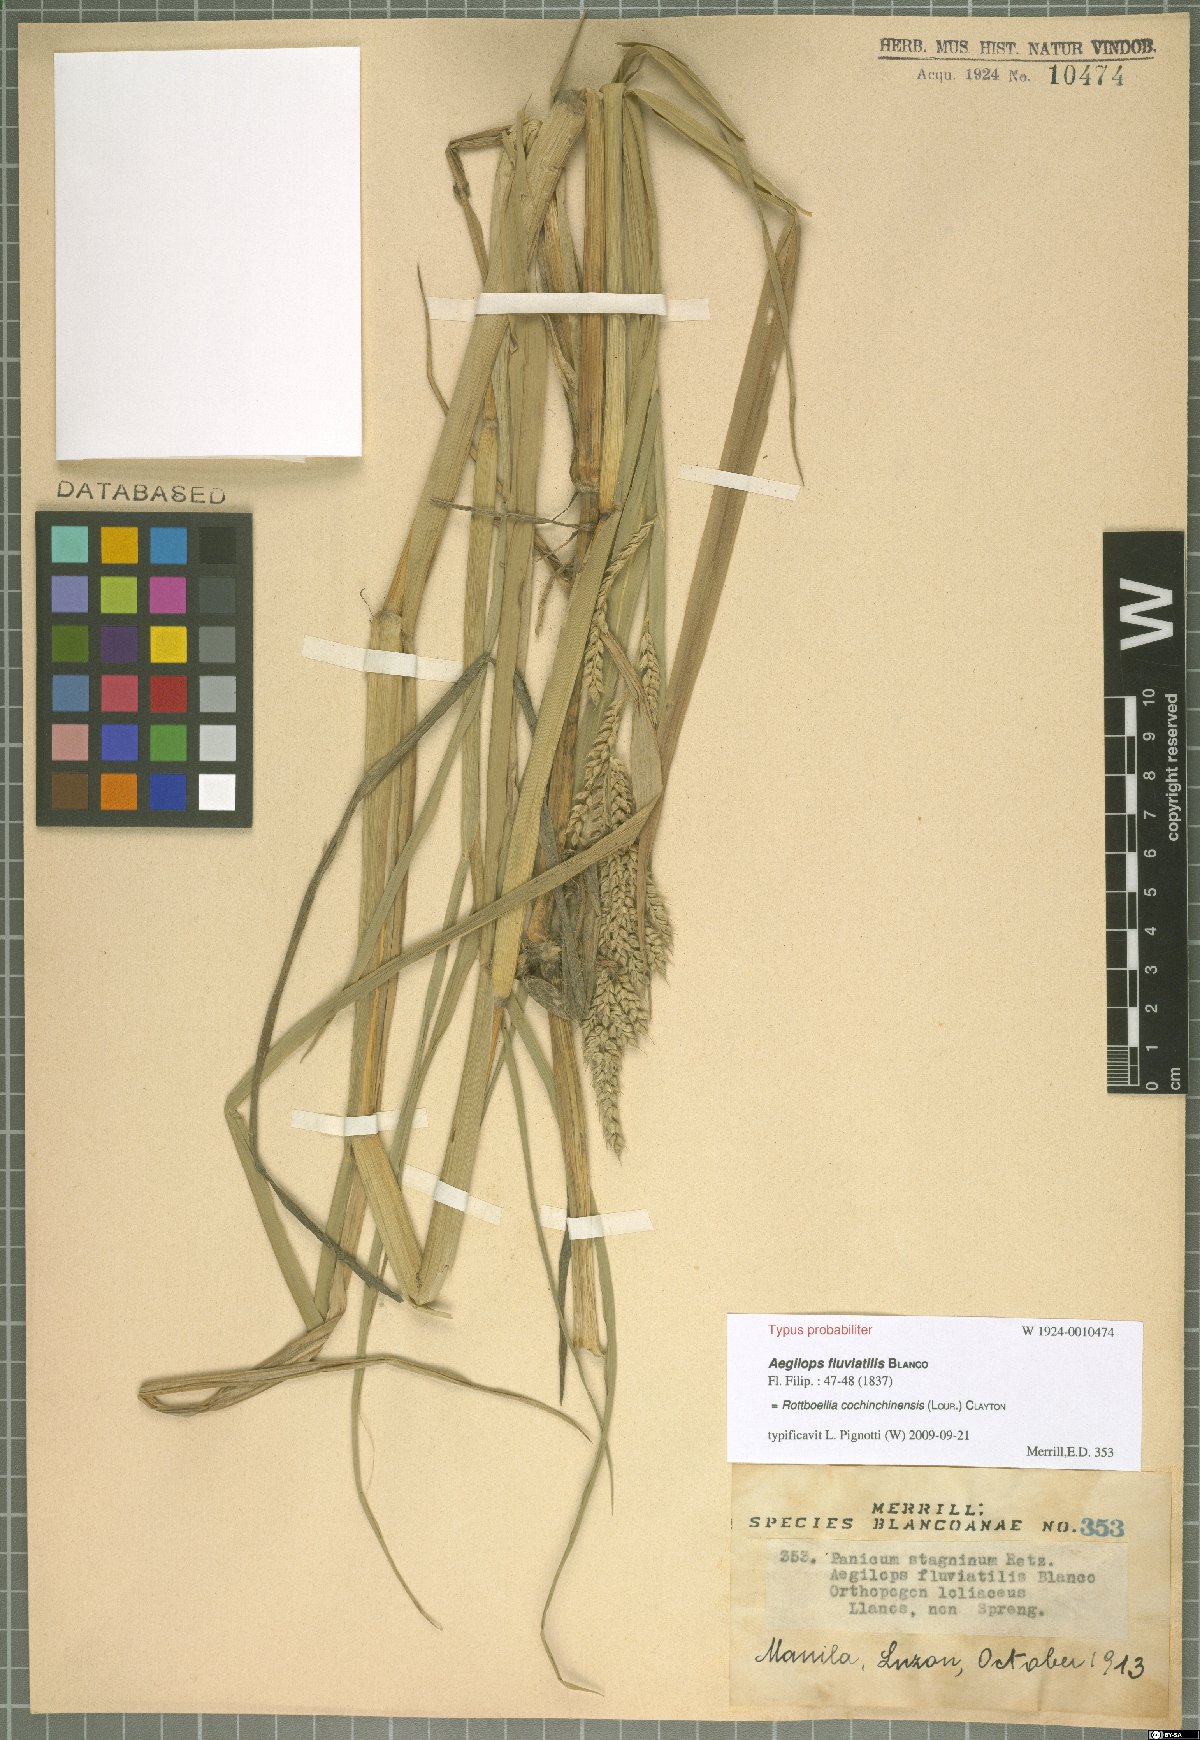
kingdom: Plantae
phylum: Tracheophyta
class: Liliopsida
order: Poales
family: Poaceae
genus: Rottboellia
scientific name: Rottboellia cochinchinensis
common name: Itchgrass
